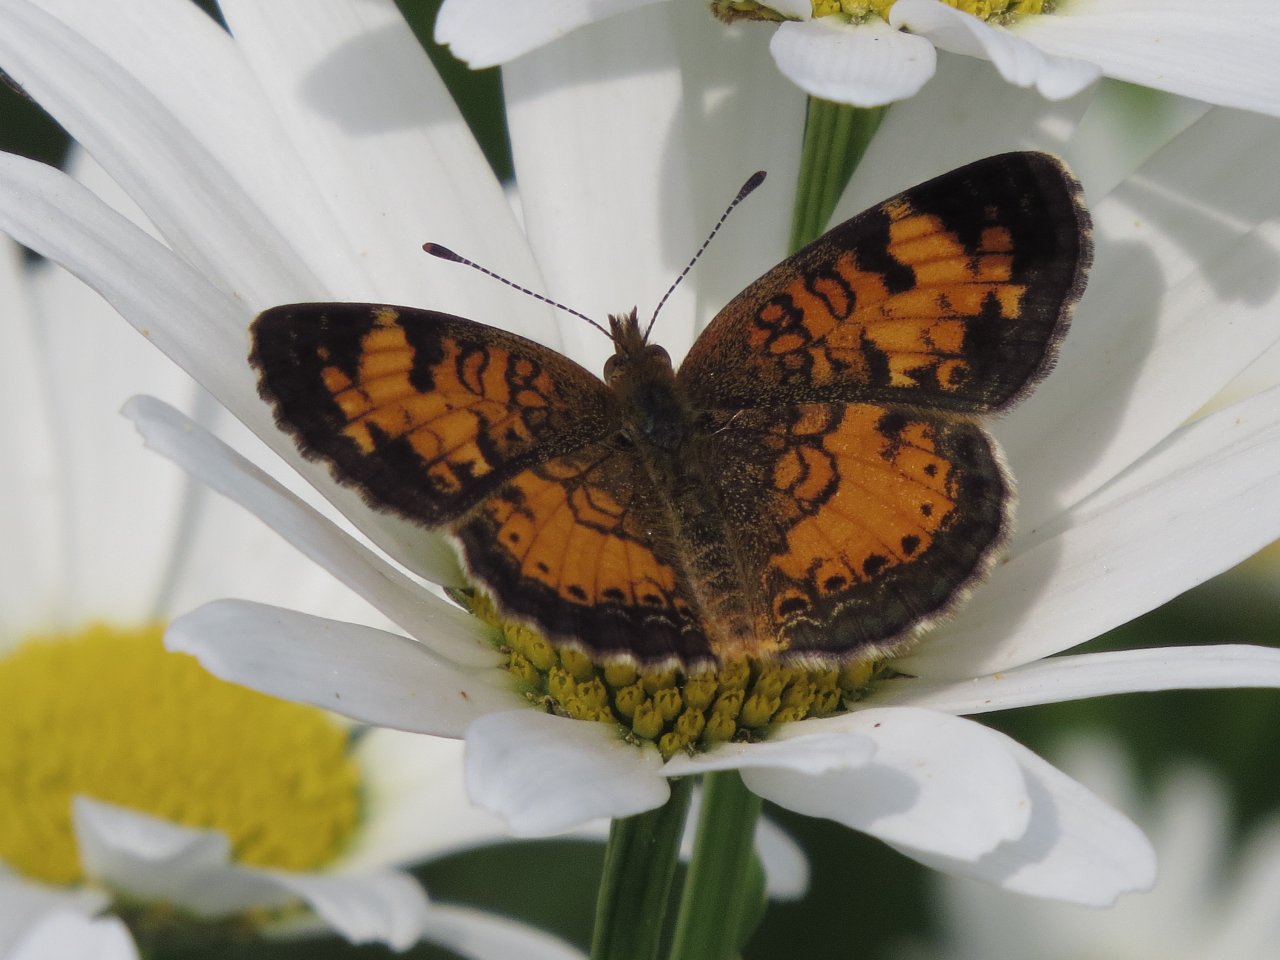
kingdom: Animalia
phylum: Arthropoda
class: Insecta
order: Lepidoptera
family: Nymphalidae
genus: Phyciodes
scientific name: Phyciodes tharos
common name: Northern Crescent
